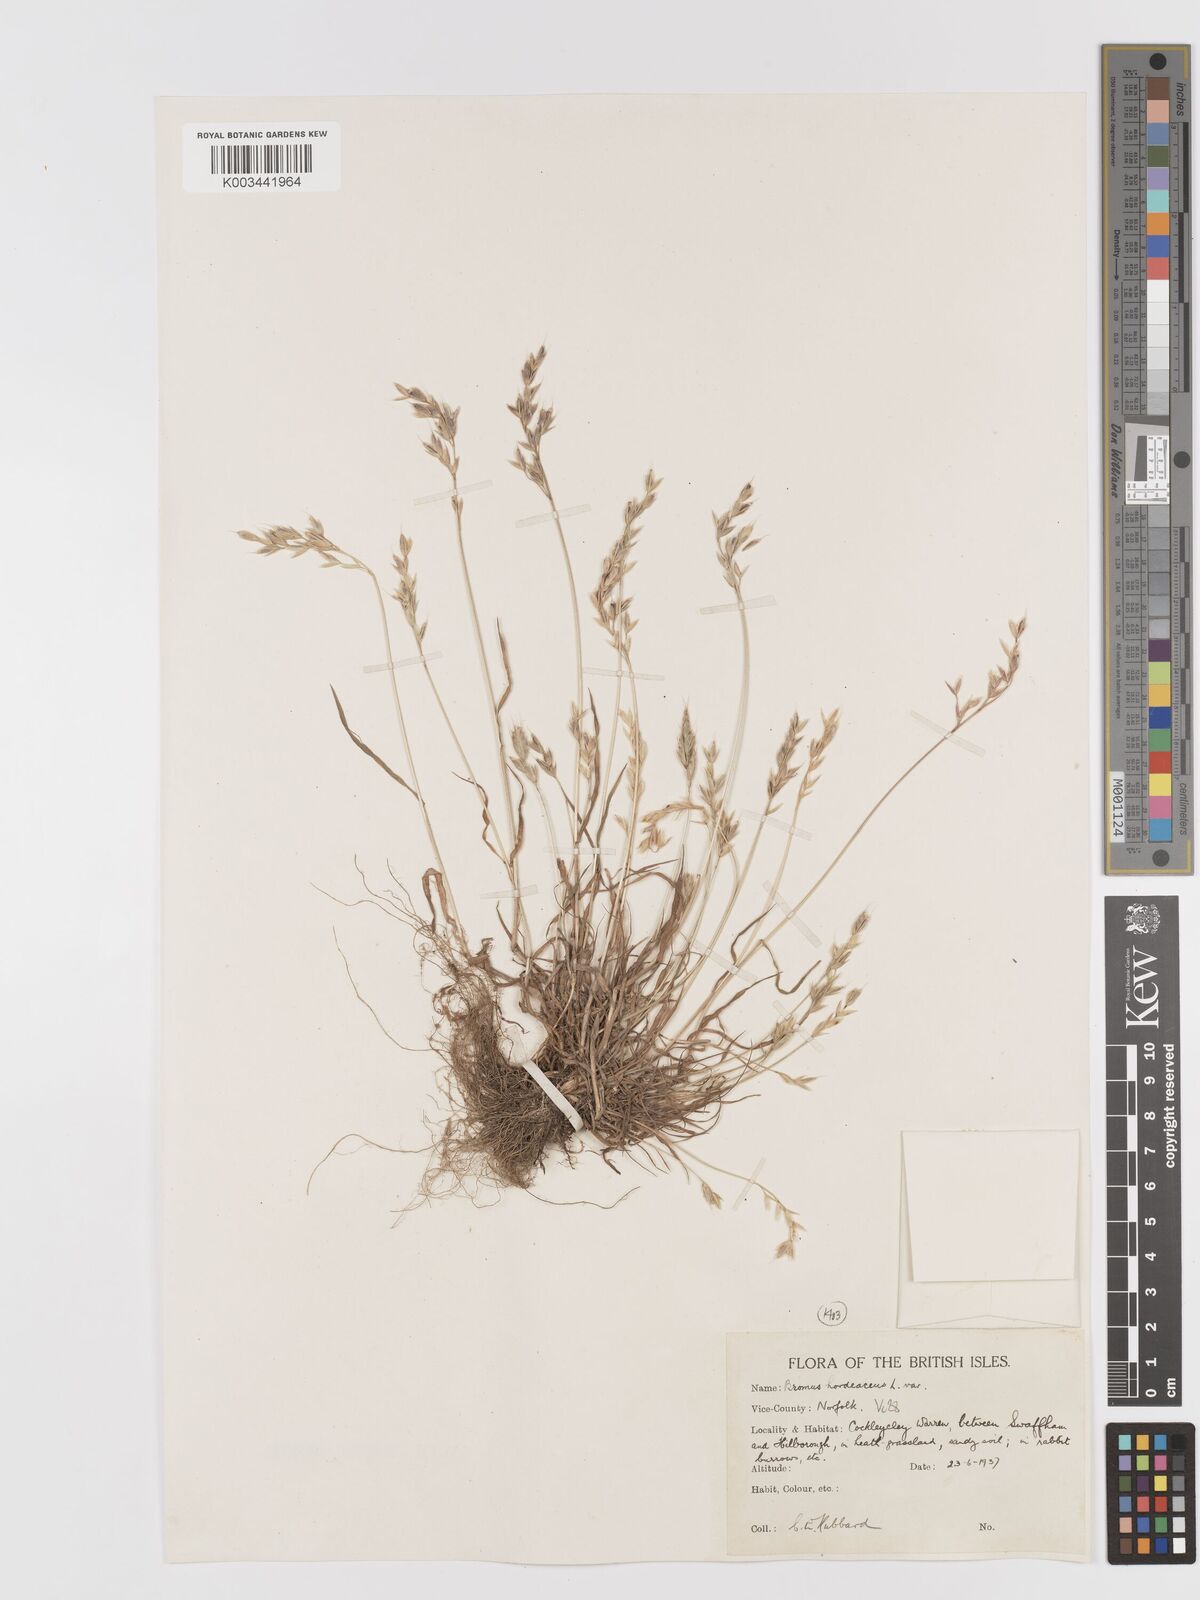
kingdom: Plantae
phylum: Tracheophyta
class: Liliopsida
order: Poales
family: Poaceae
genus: Bromus
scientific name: Bromus hordeaceus
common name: Soft brome
